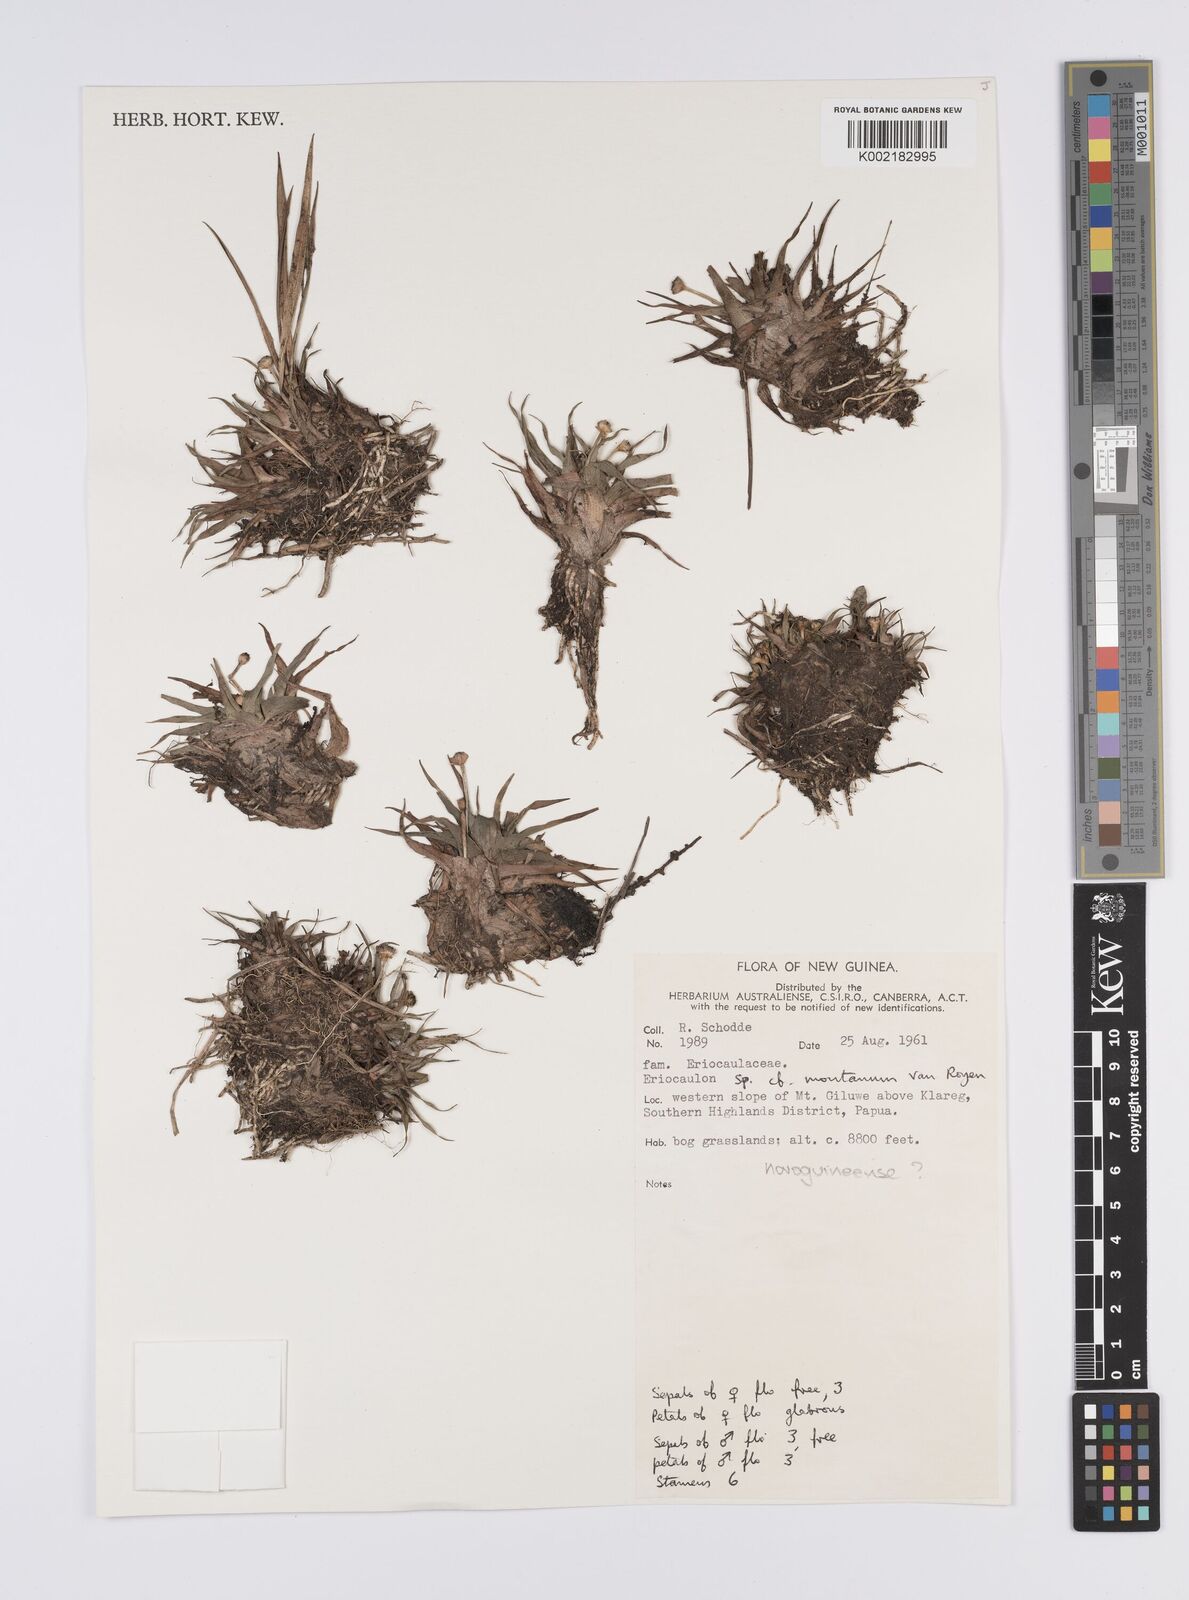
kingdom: Plantae
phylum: Tracheophyta
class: Liliopsida
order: Poales
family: Eriocaulaceae
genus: Eriocaulon
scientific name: Eriocaulon novoguineense
